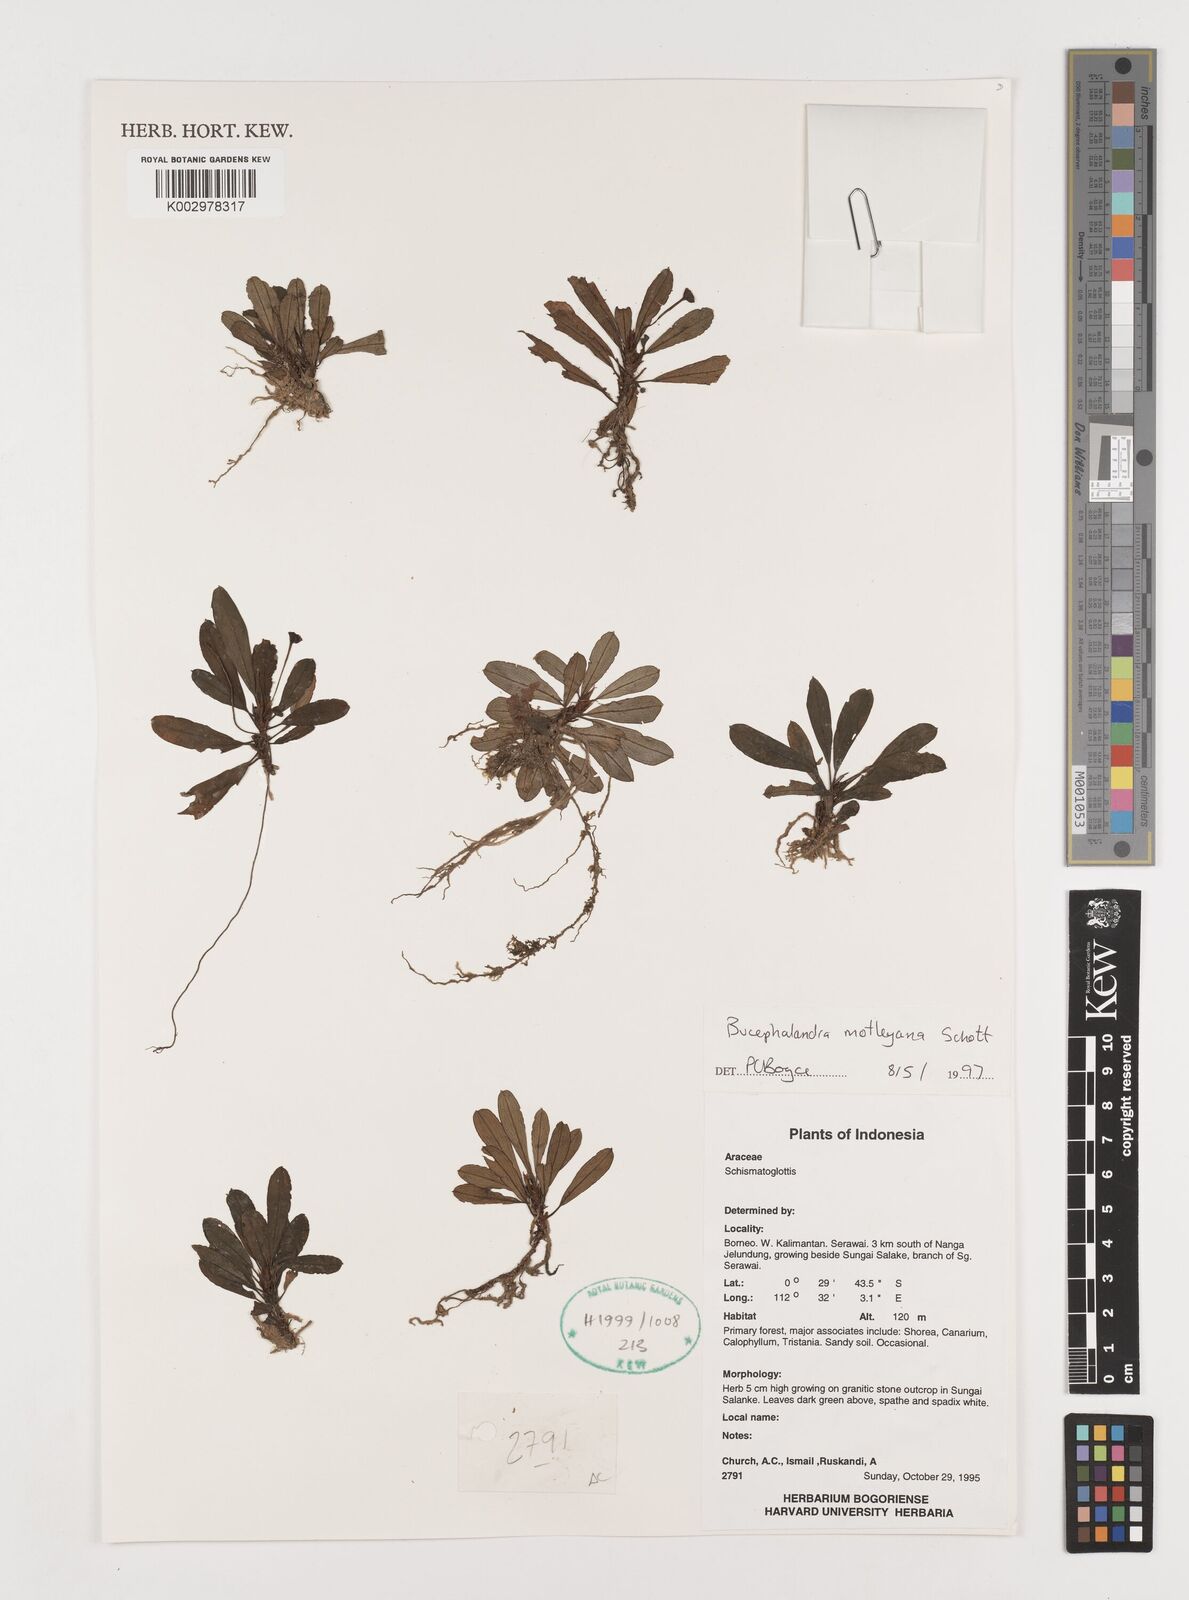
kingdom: Plantae
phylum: Tracheophyta
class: Liliopsida
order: Alismatales
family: Araceae
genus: Bucephalandra
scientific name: Bucephalandra motleyana
